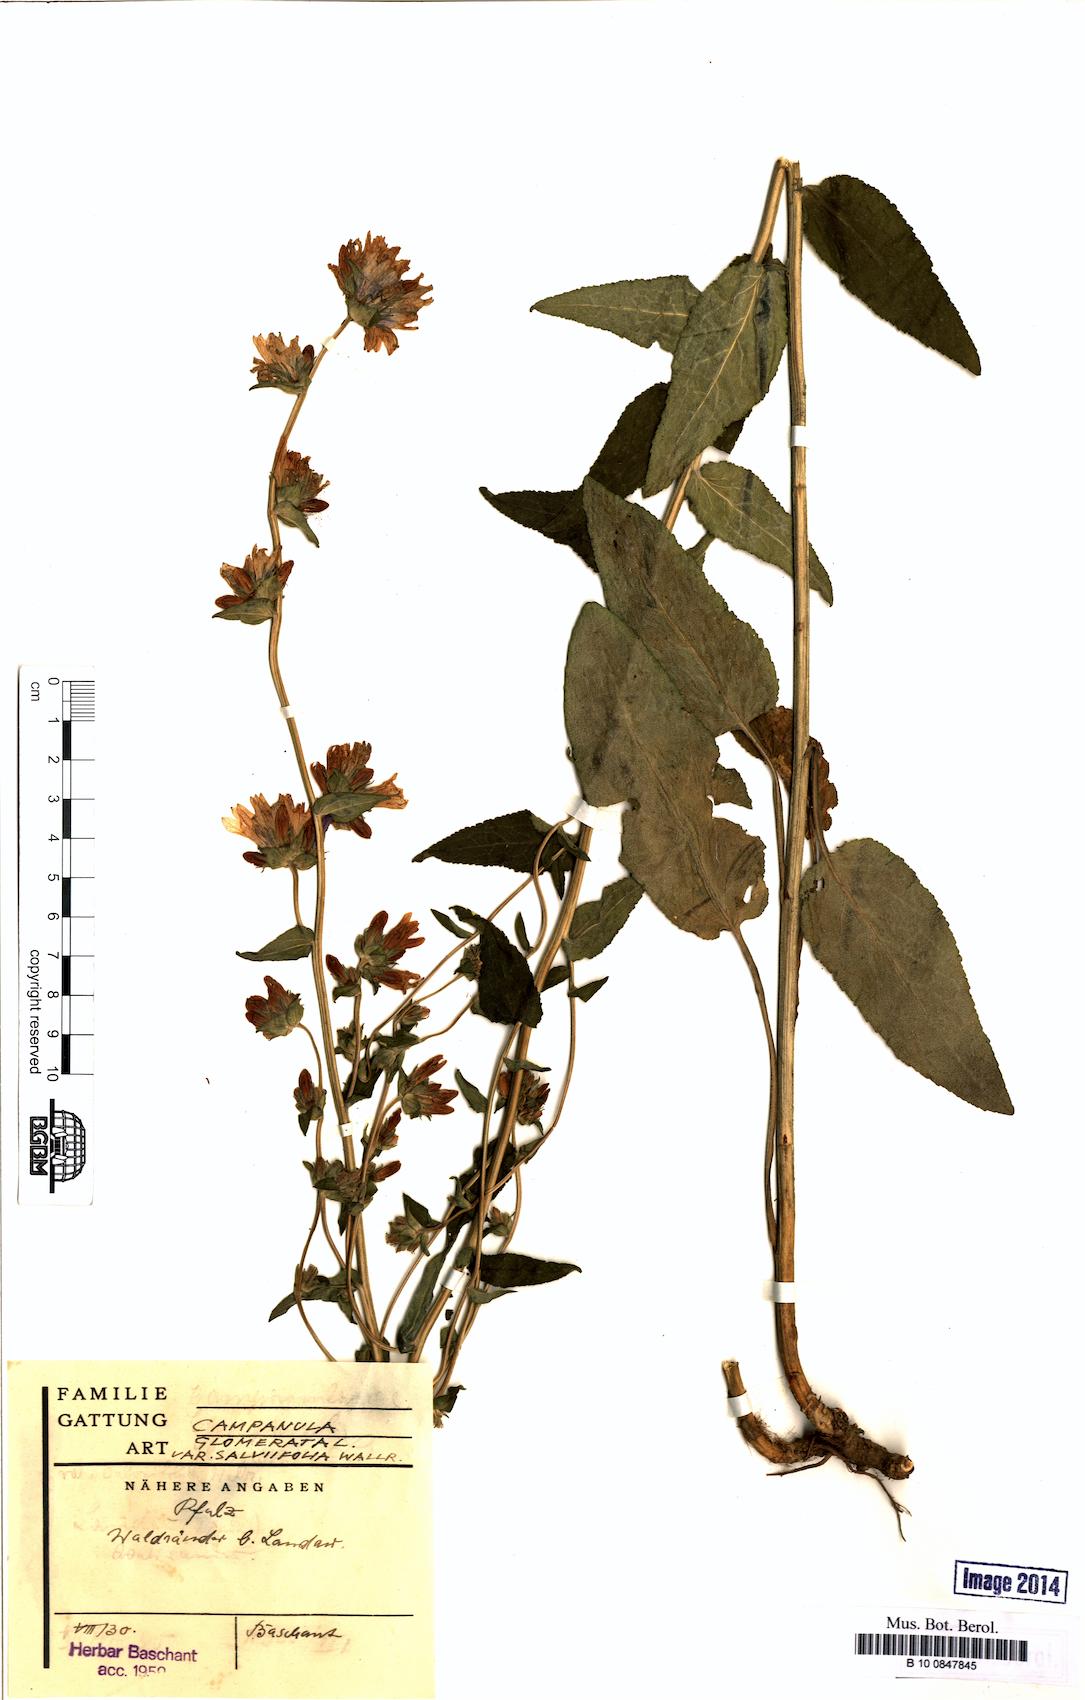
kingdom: Plantae
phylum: Tracheophyta
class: Magnoliopsida
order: Asterales
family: Campanulaceae
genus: Campanula
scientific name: Campanula glomerata
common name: Clustered bellflower
